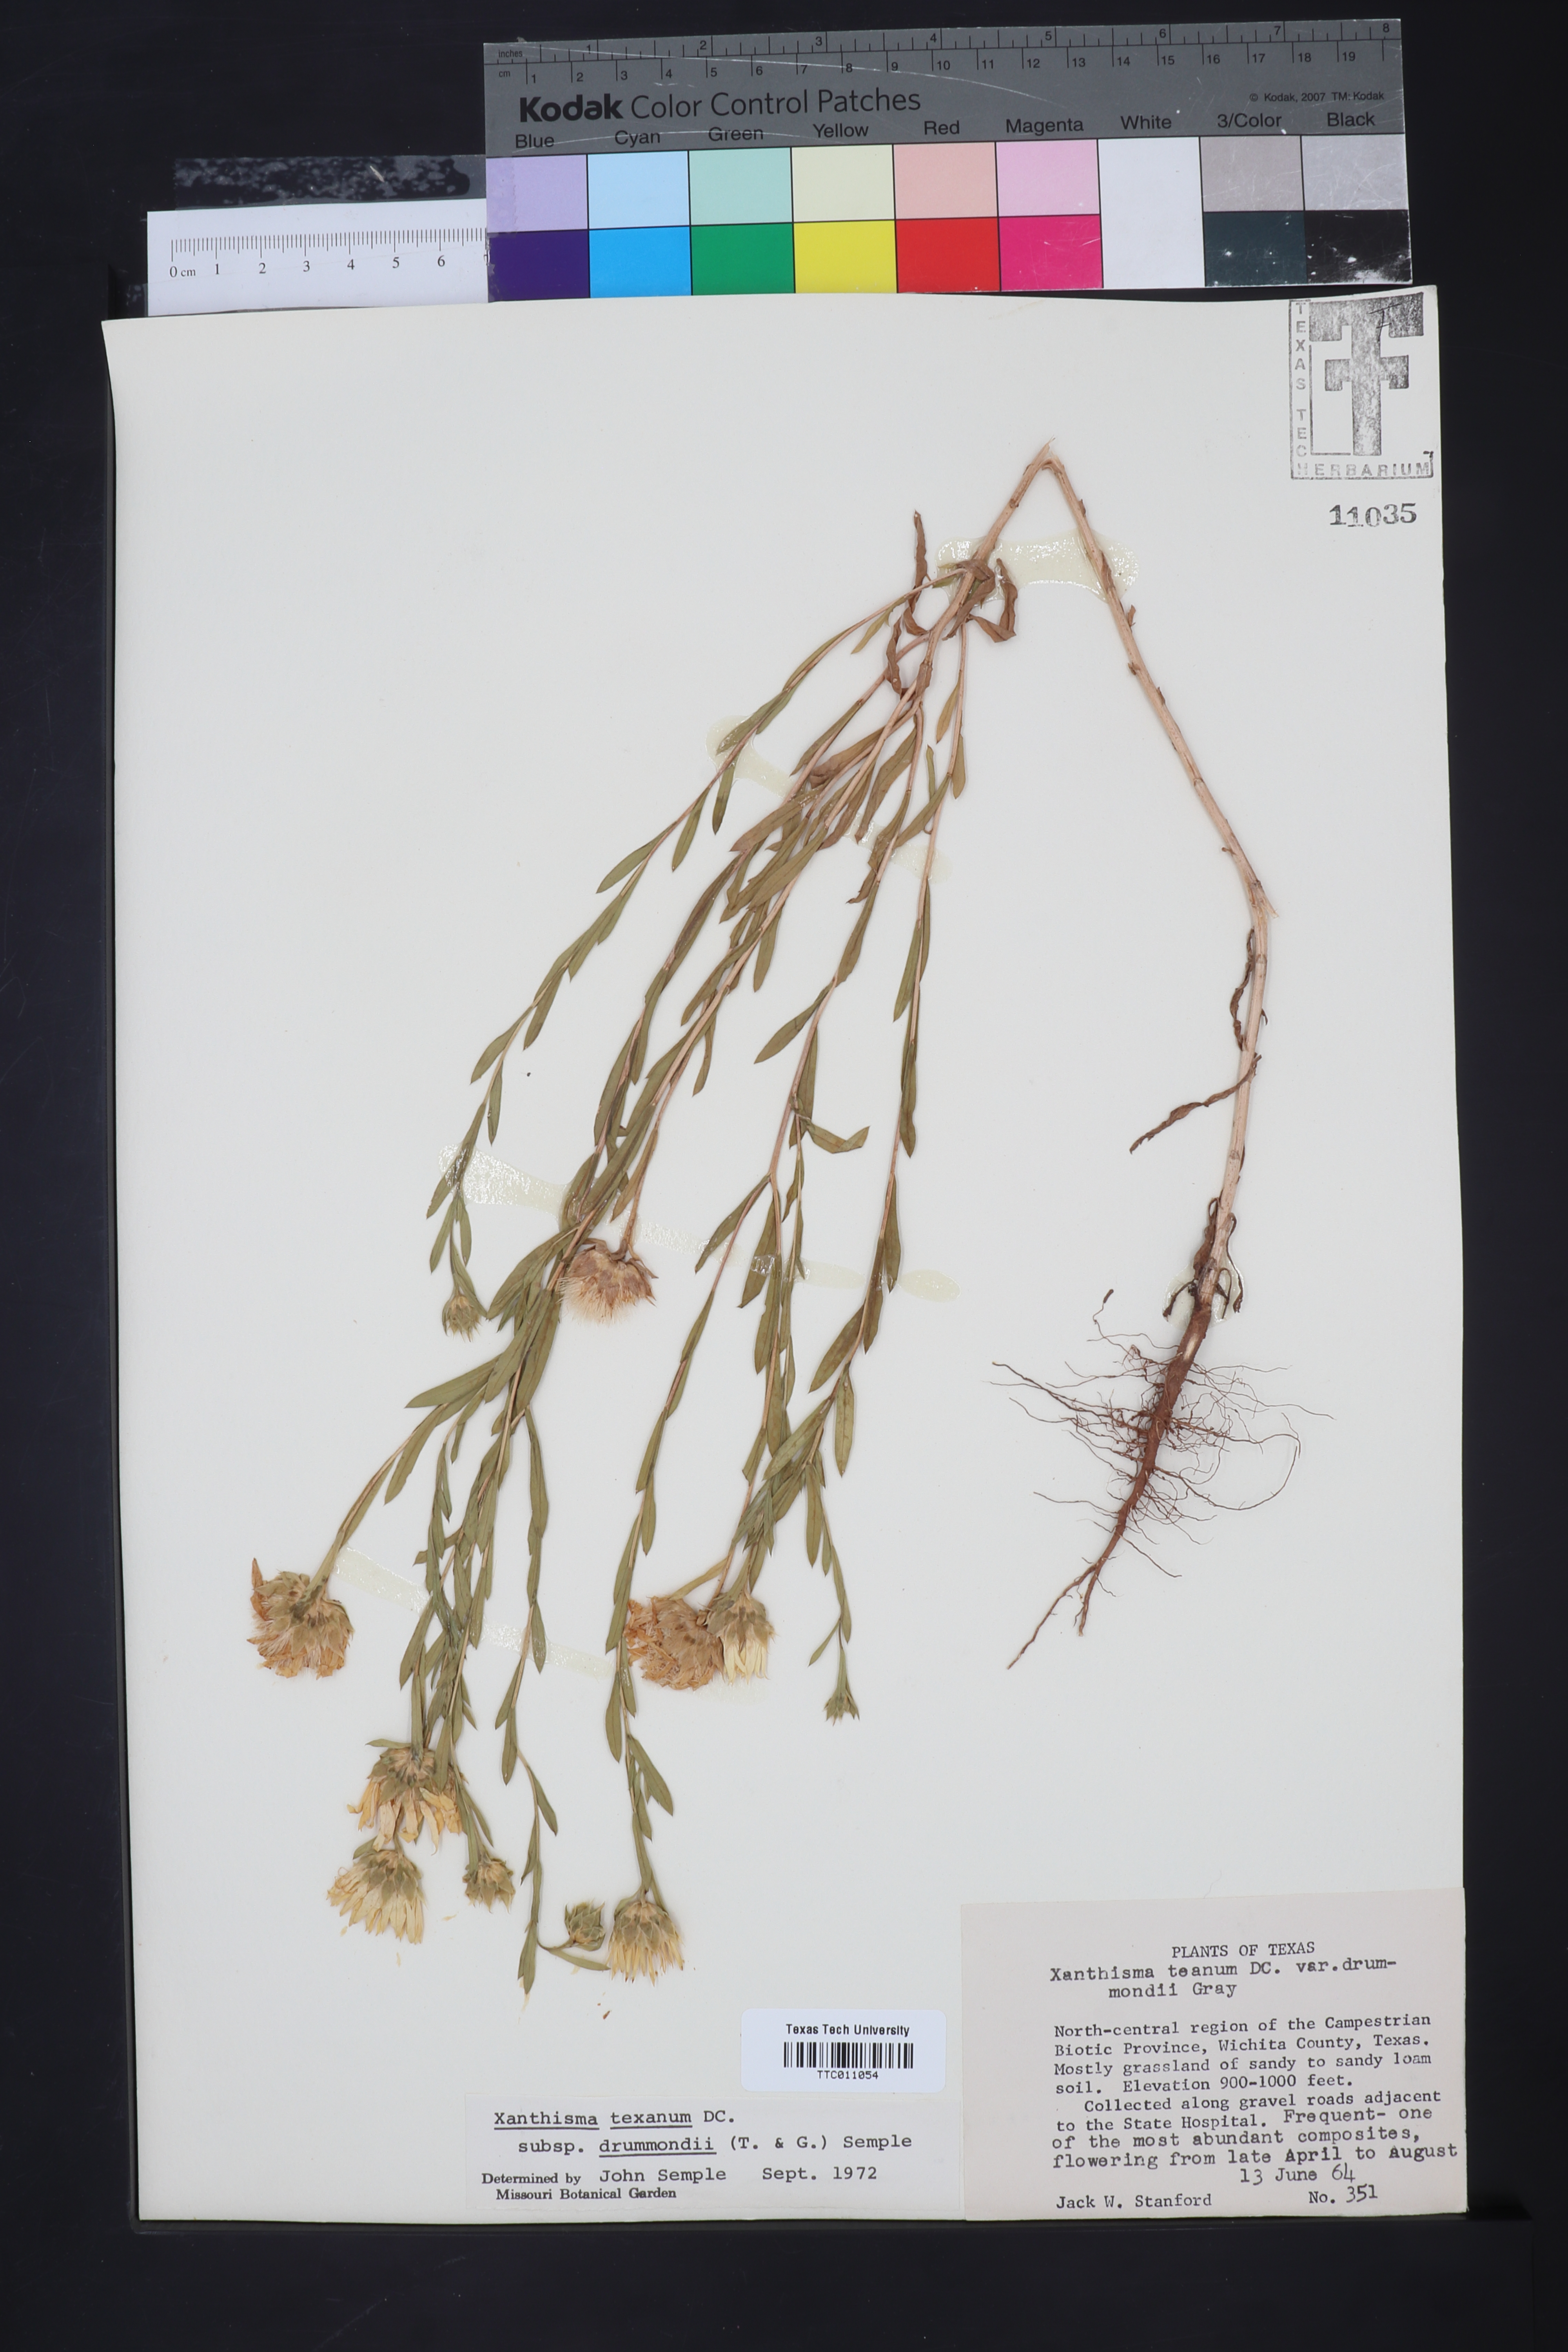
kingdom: Plantae
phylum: Tracheophyta
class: Magnoliopsida
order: Asterales
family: Asteraceae
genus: Xanthisma
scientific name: Xanthisma texanum
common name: Texas sleepy daisy
